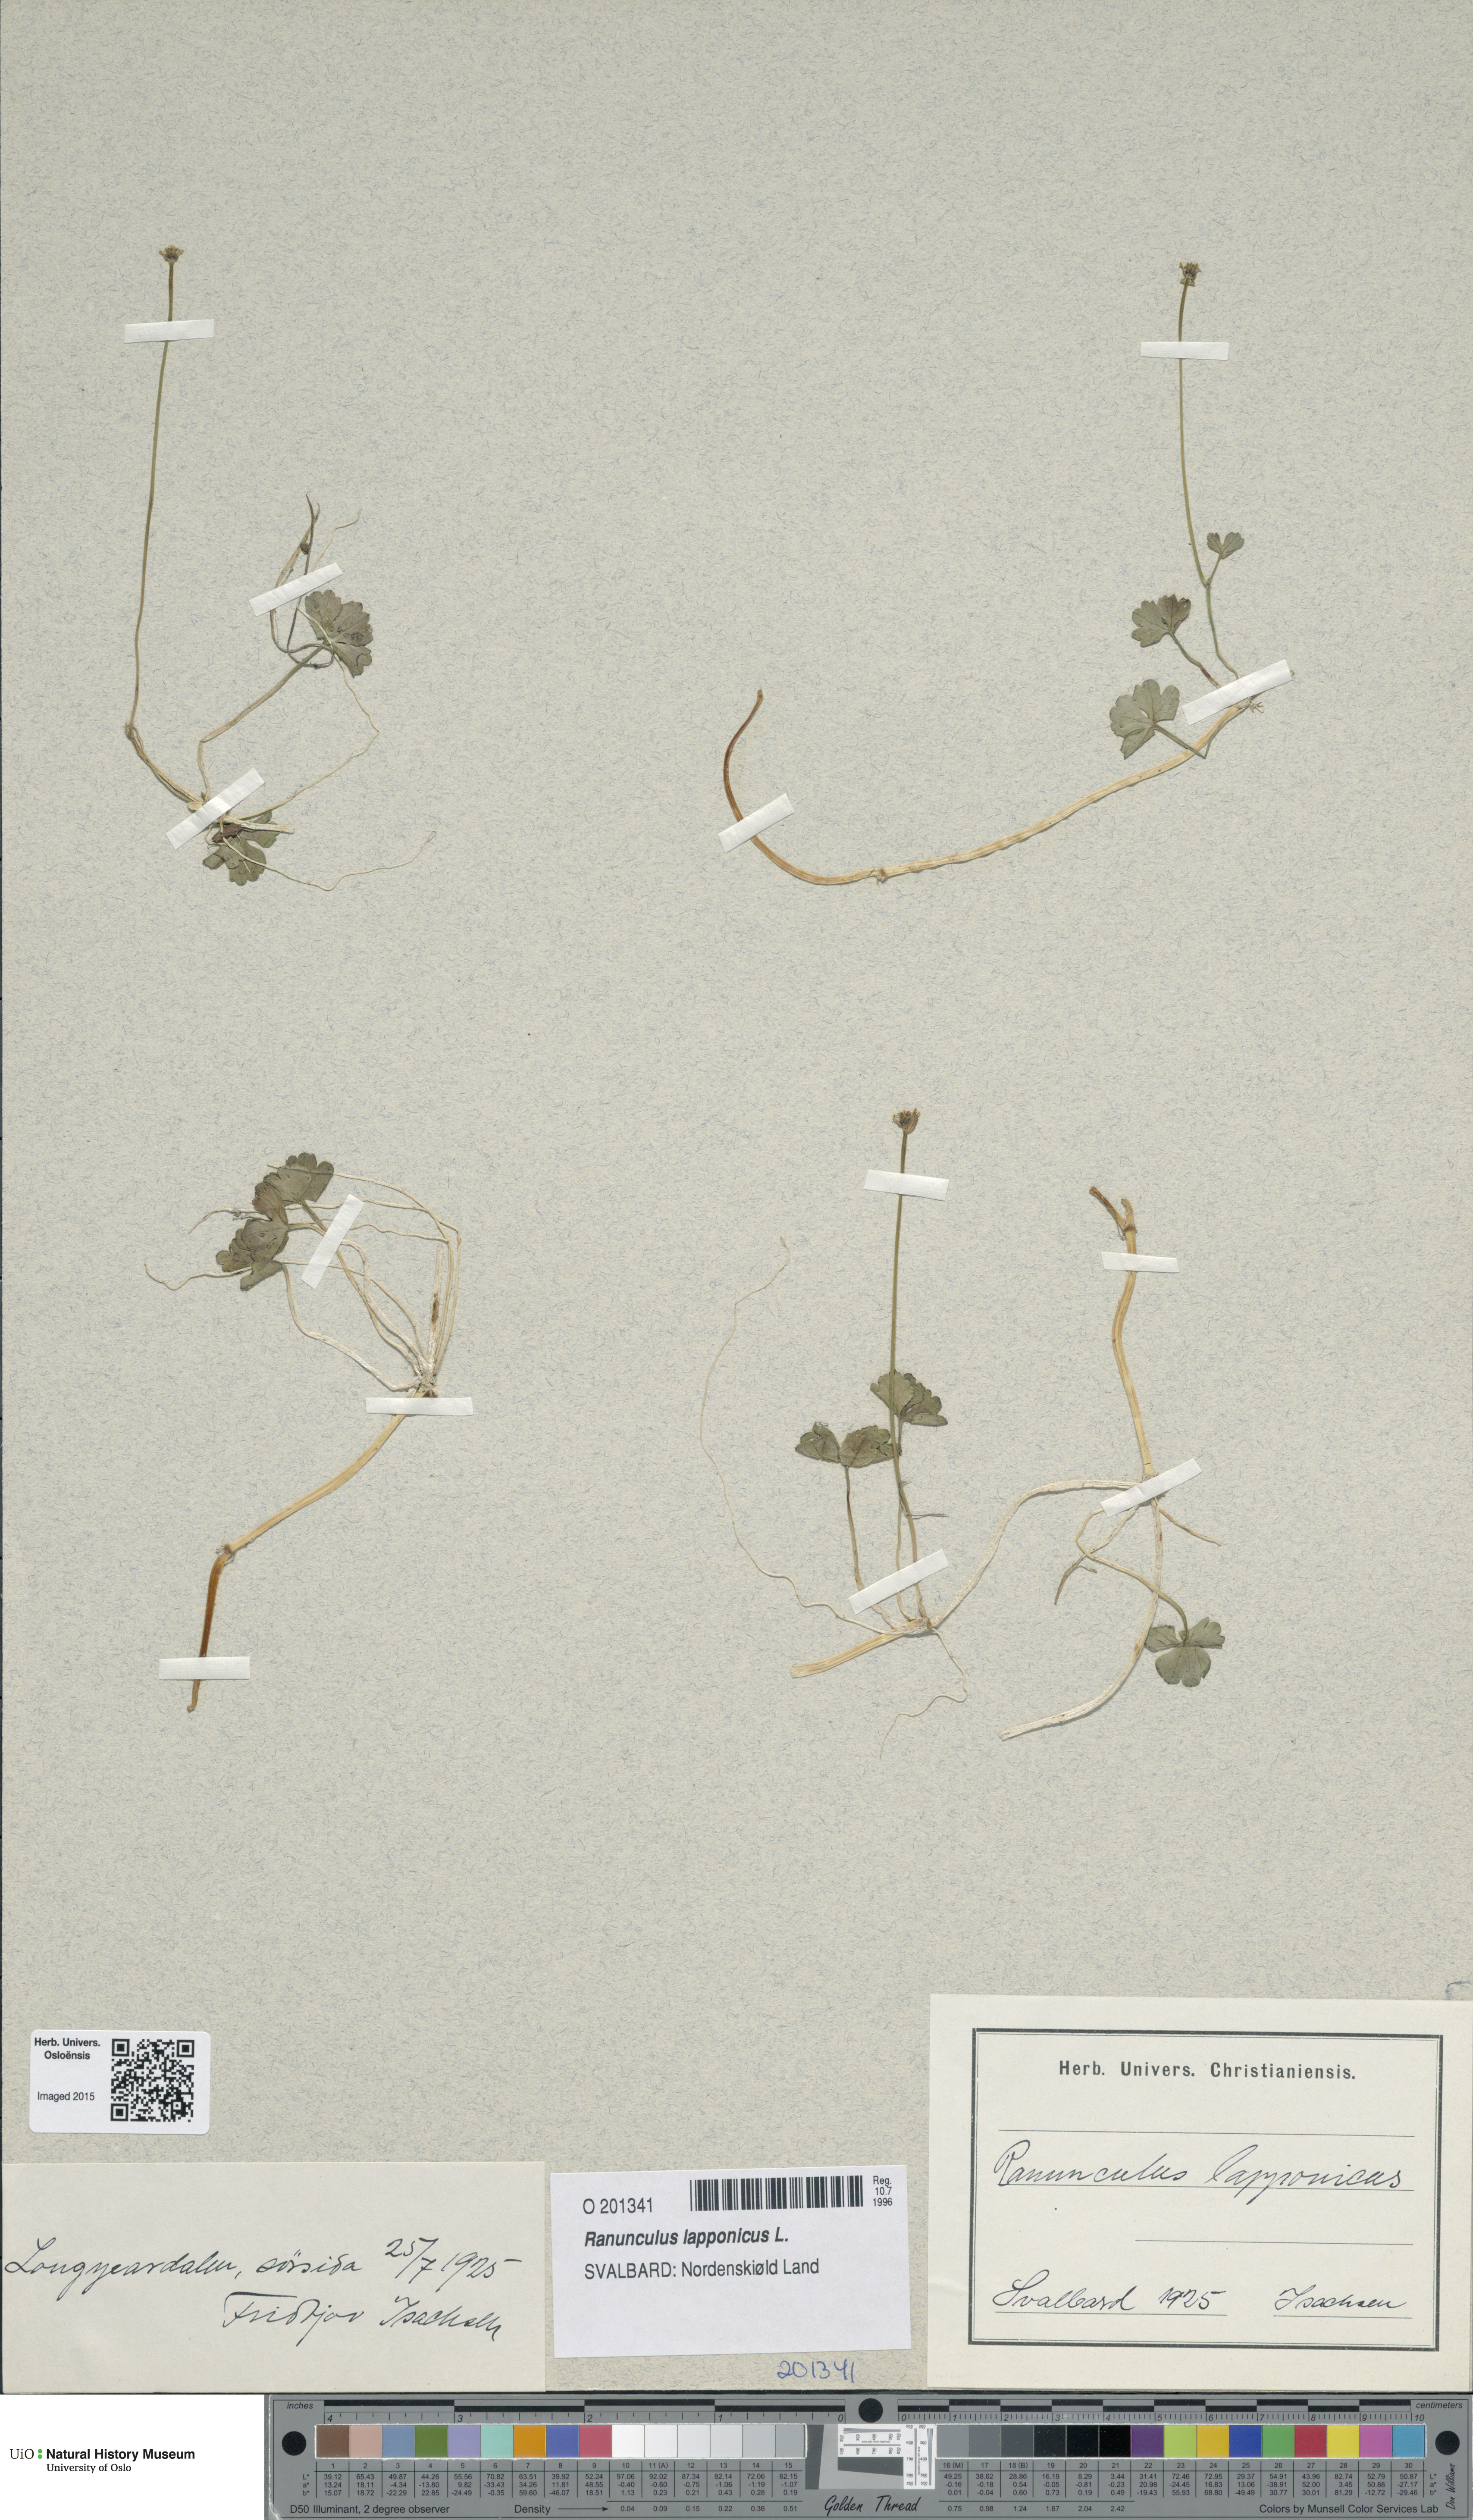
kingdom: Plantae
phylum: Tracheophyta
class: Magnoliopsida
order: Ranunculales
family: Ranunculaceae
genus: Coptidium
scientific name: Coptidium lapponicum
